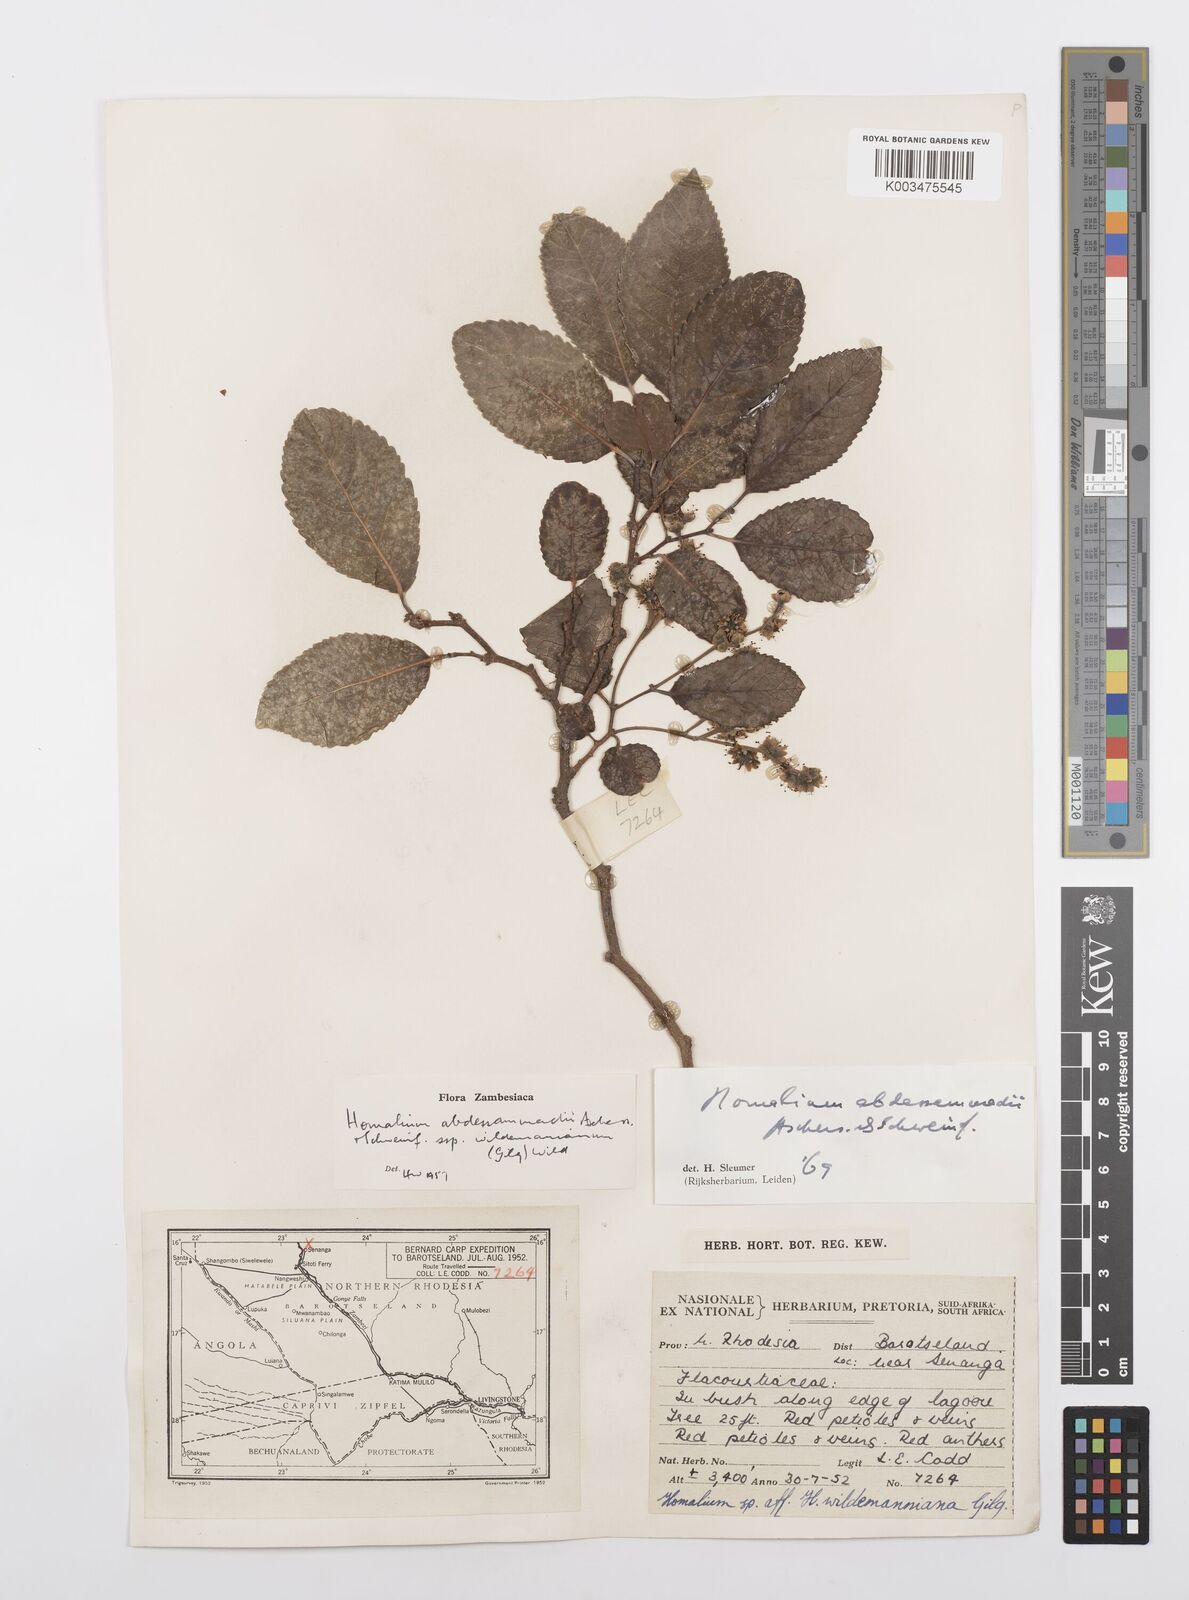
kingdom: Plantae
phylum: Tracheophyta
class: Magnoliopsida
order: Malpighiales
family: Salicaceae
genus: Homalium
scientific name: Homalium abdessammadii
